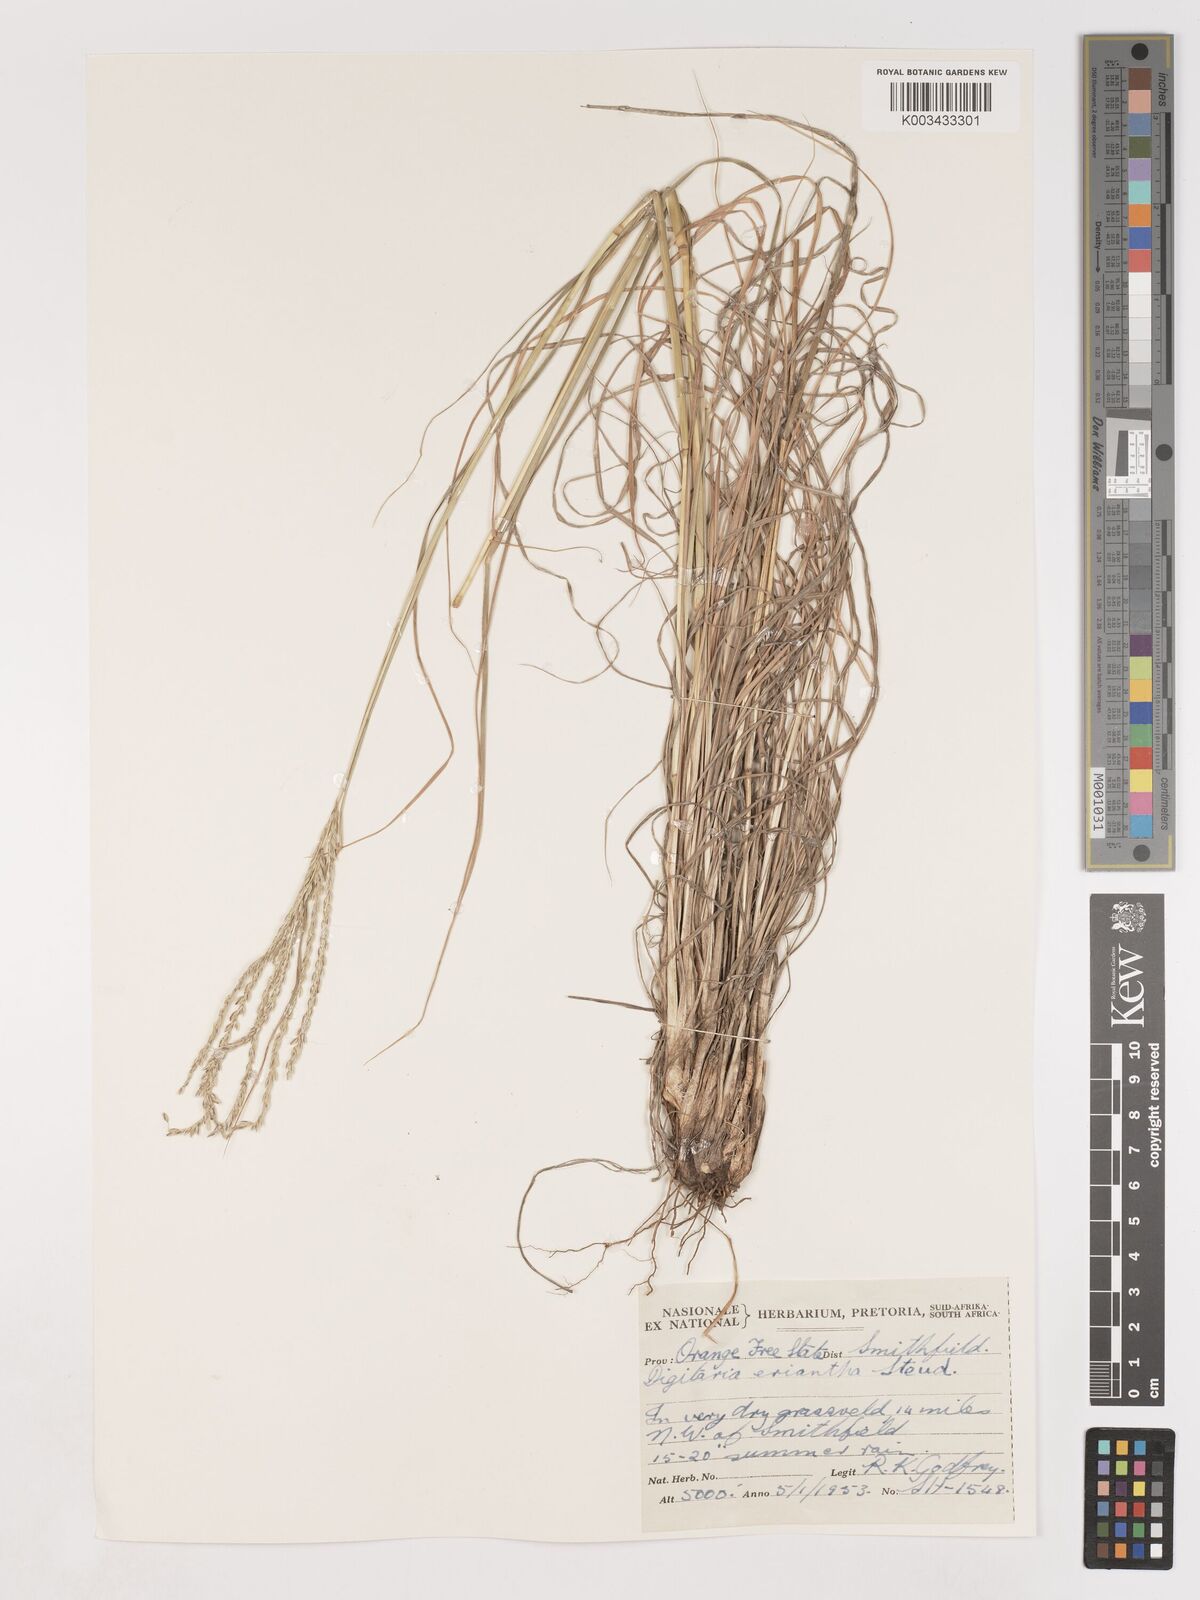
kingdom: Plantae
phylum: Tracheophyta
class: Liliopsida
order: Poales
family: Poaceae
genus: Digitaria
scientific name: Digitaria eriantha
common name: Digitgrass
